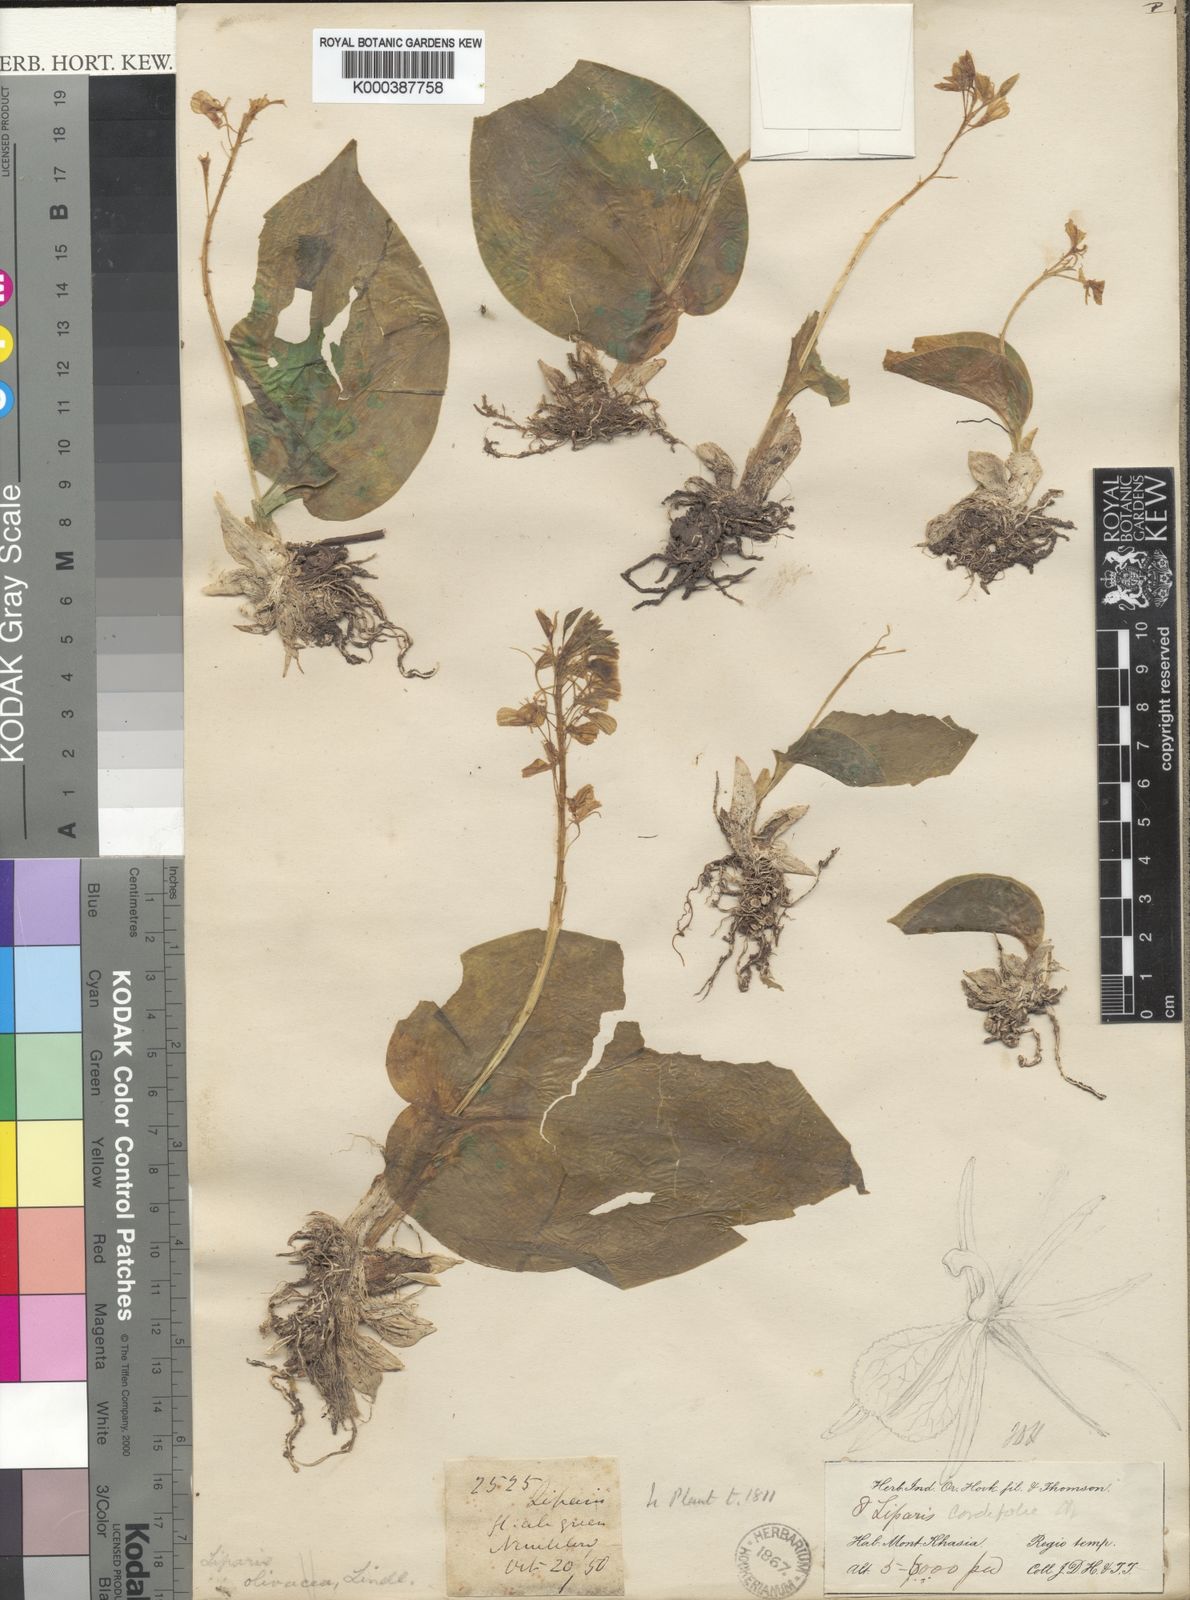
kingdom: Plantae
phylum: Tracheophyta
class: Liliopsida
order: Asparagales
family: Orchidaceae
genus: Liparis
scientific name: Liparis cordifolia
